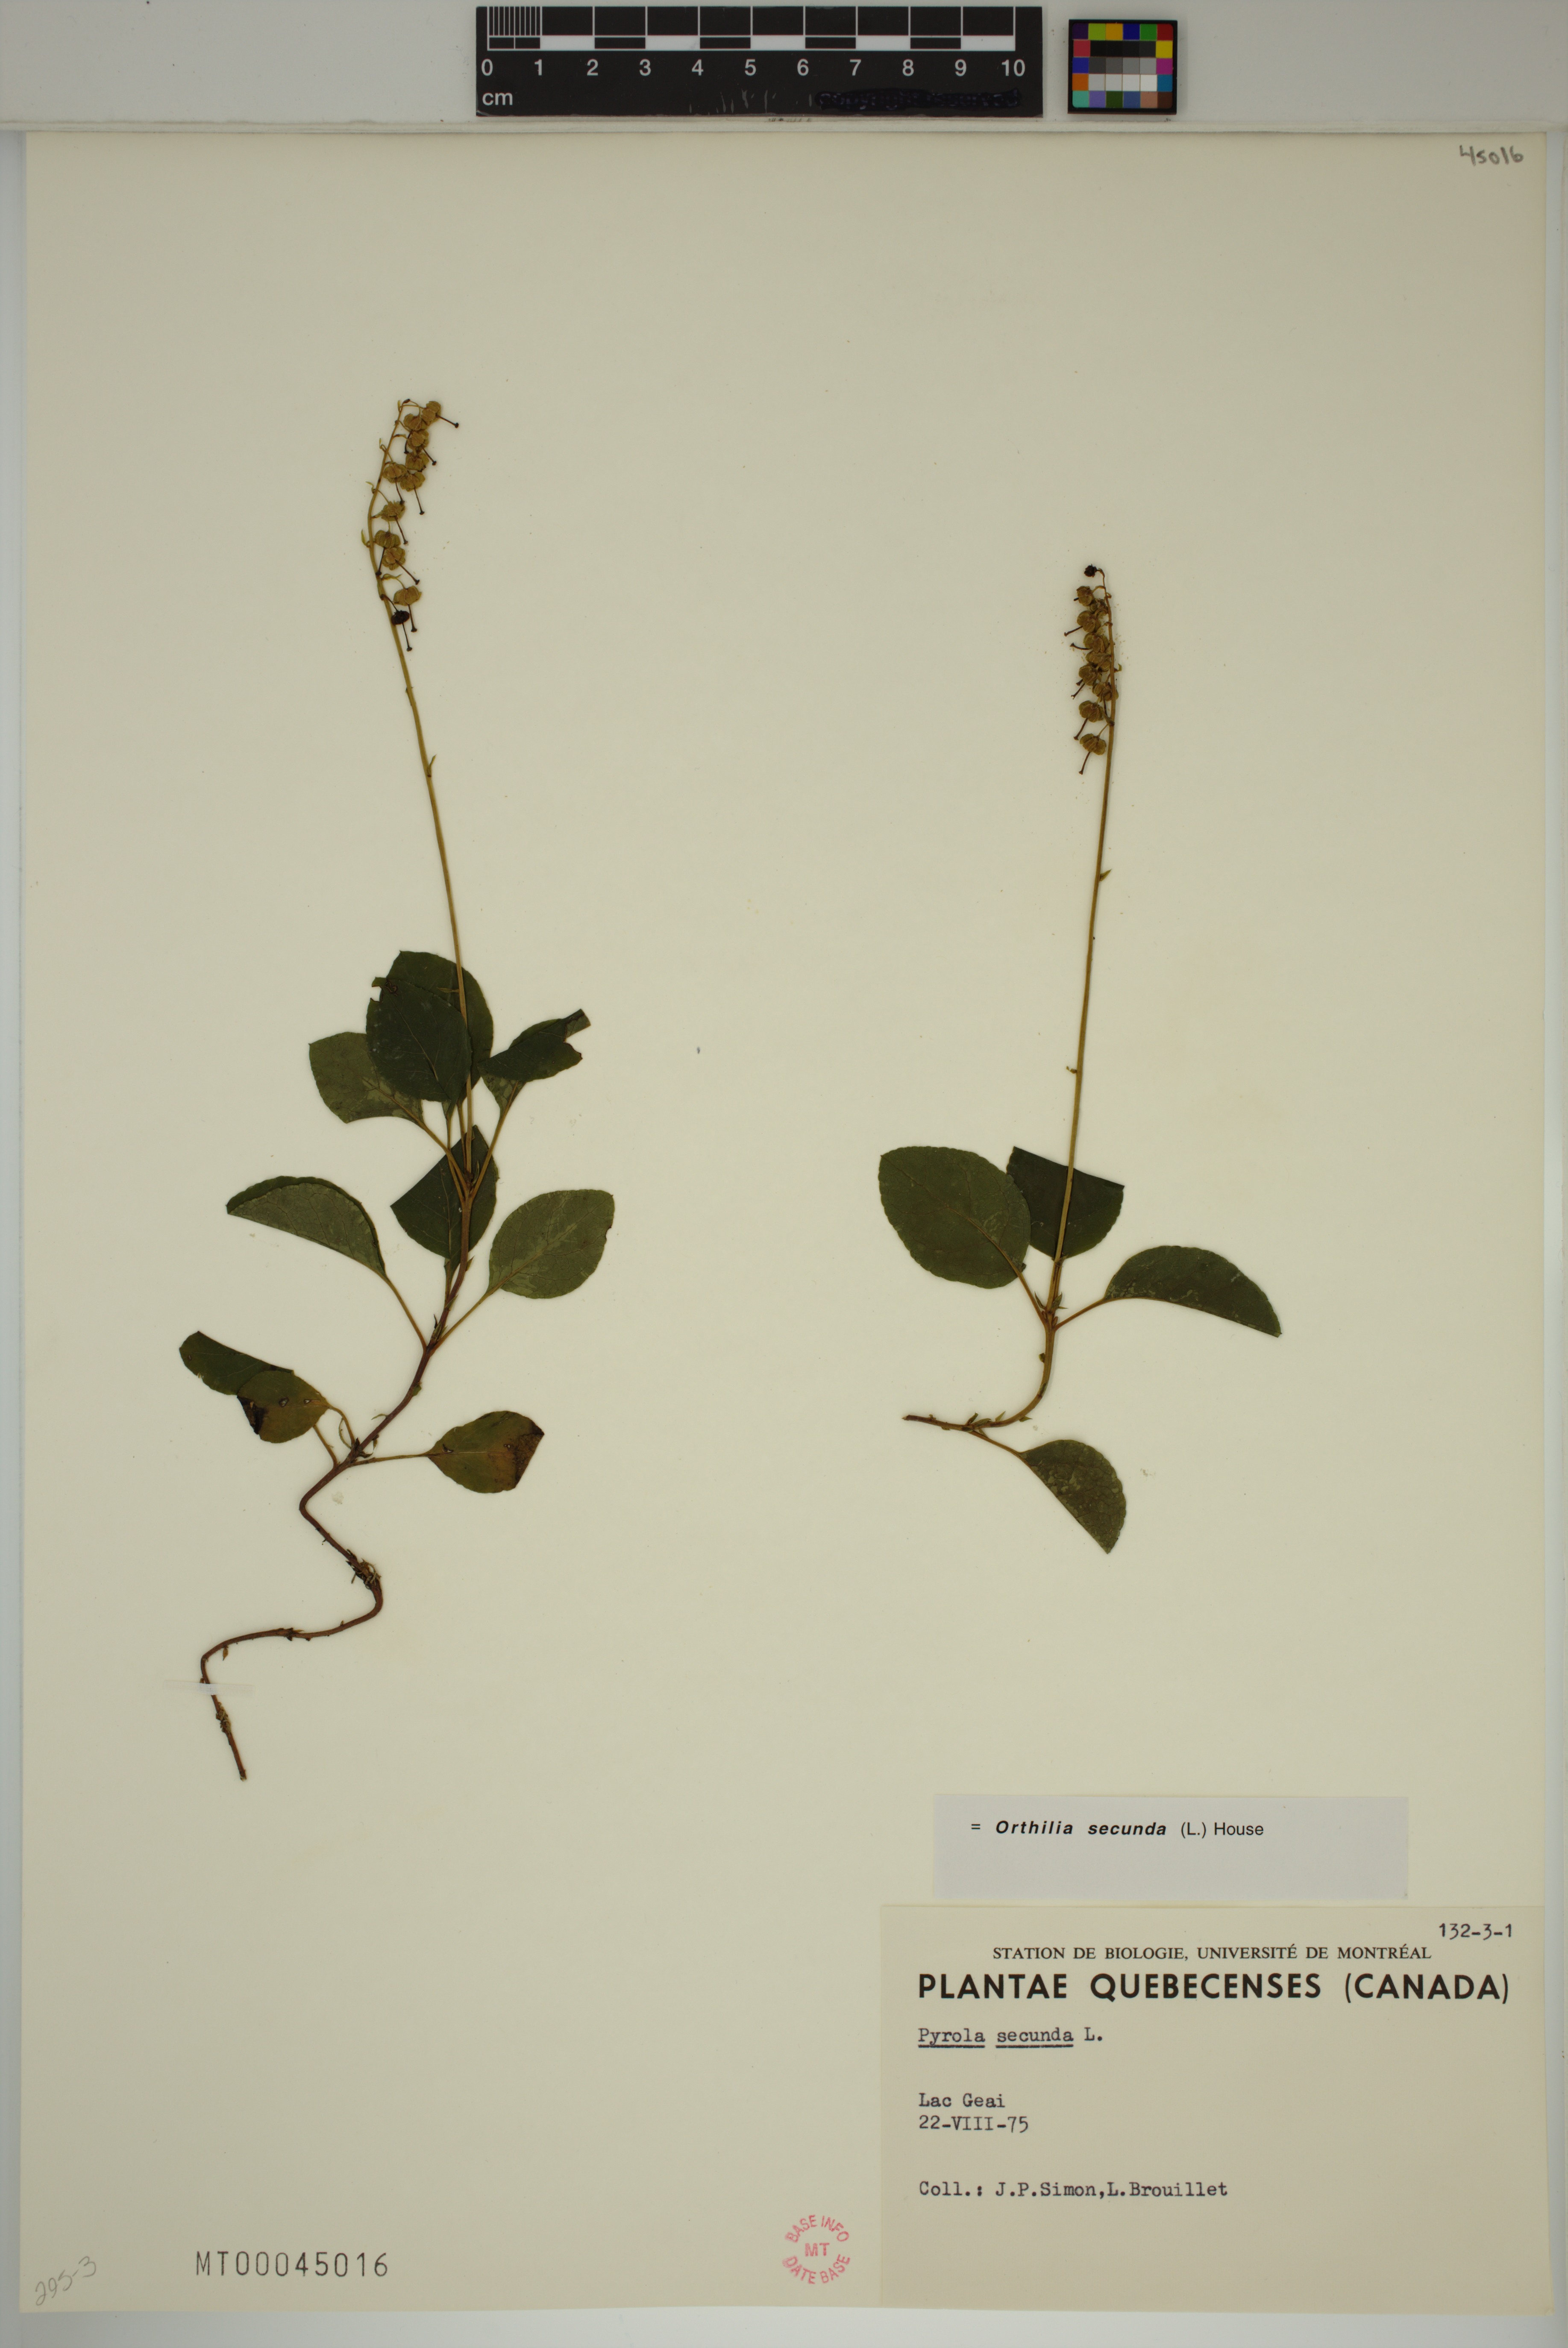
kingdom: Plantae
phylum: Tracheophyta
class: Magnoliopsida
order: Ericales
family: Ericaceae
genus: Orthilia
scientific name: Orthilia secunda
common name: One-sided orthilia
